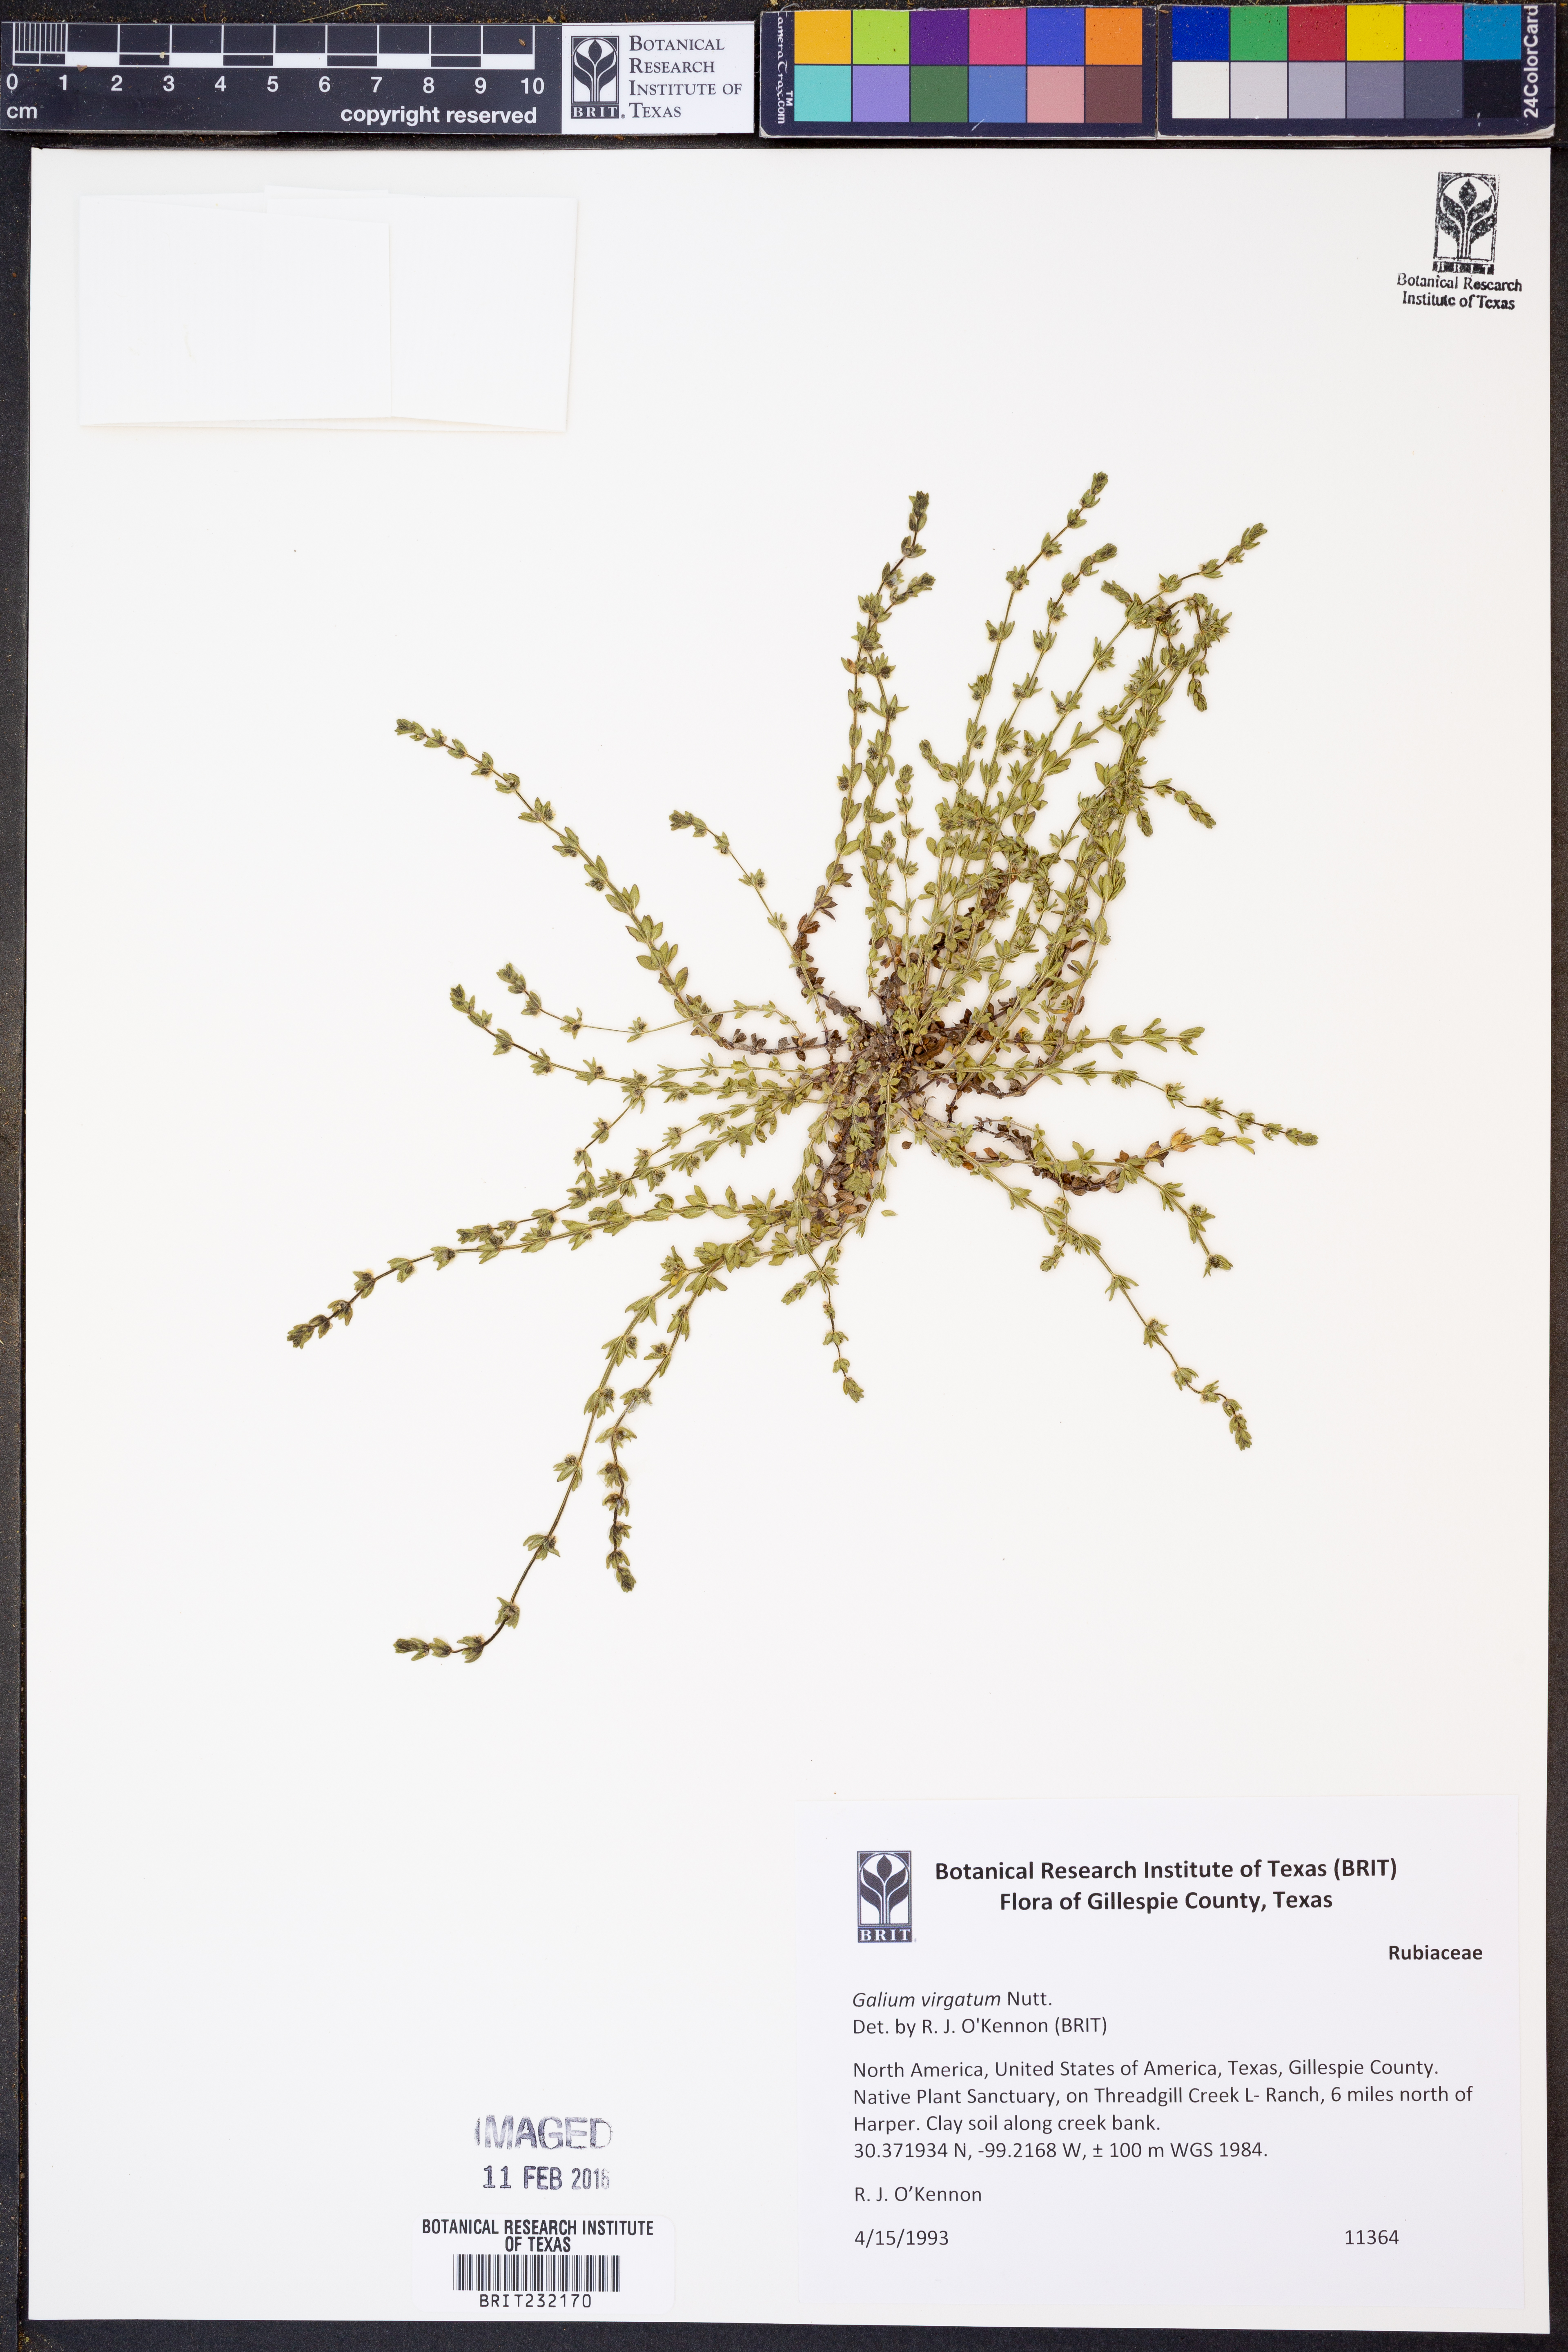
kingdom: Plantae
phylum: Tracheophyta
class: Magnoliopsida
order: Gentianales
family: Rubiaceae
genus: Galium
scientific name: Galium virgatum
